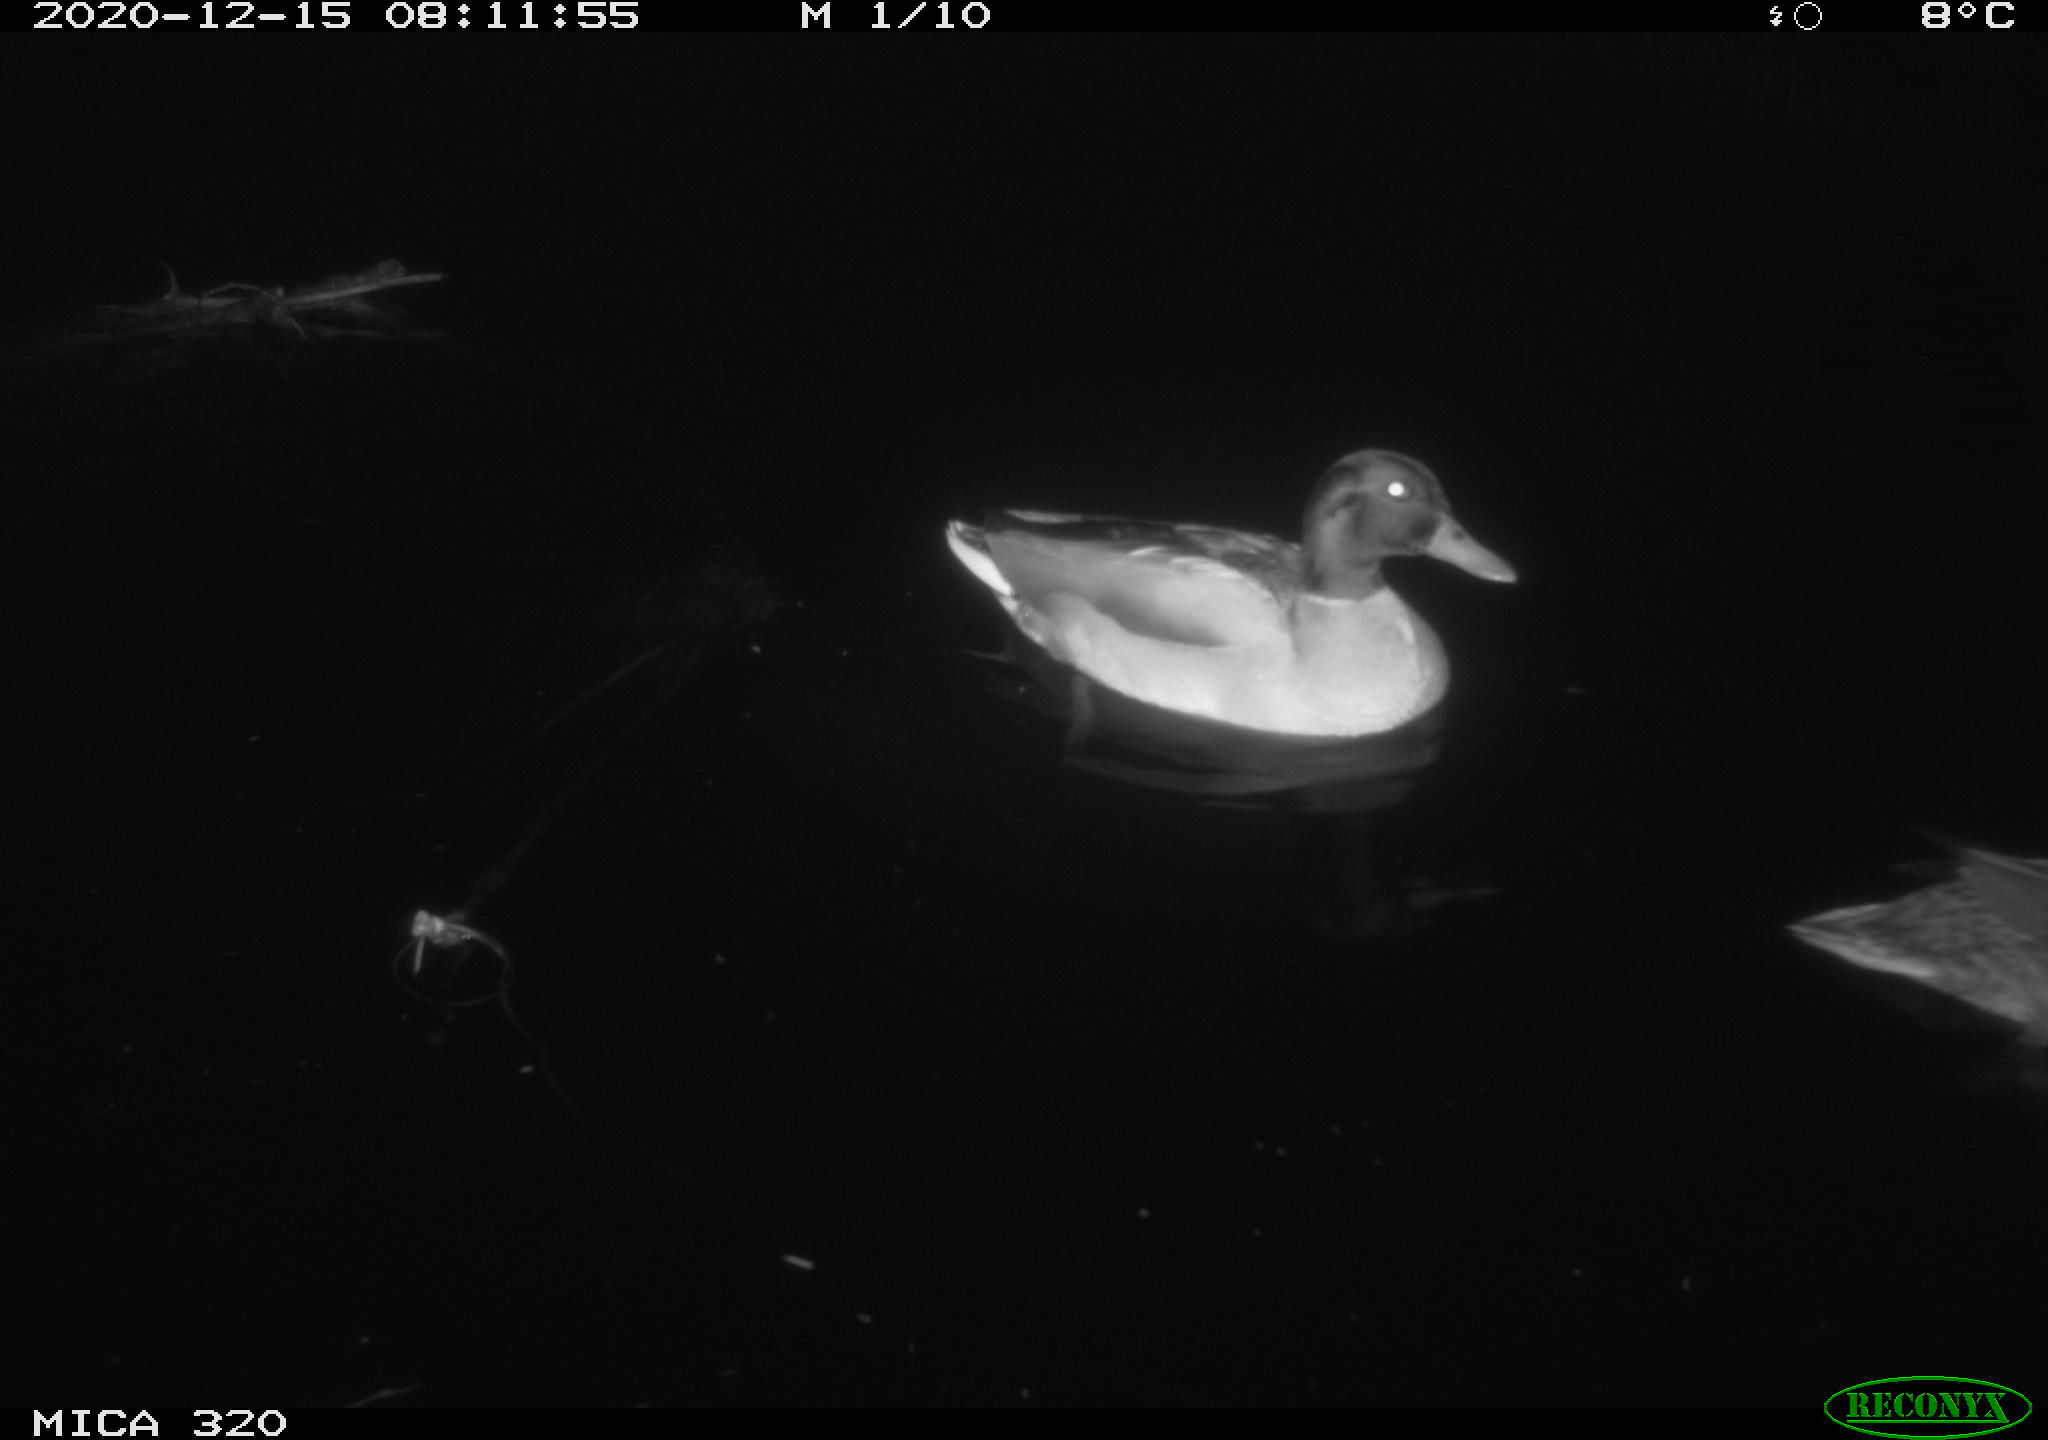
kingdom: Animalia
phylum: Chordata
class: Aves
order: Anseriformes
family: Anatidae
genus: Anas
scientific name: Anas platyrhynchos
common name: Mallard
